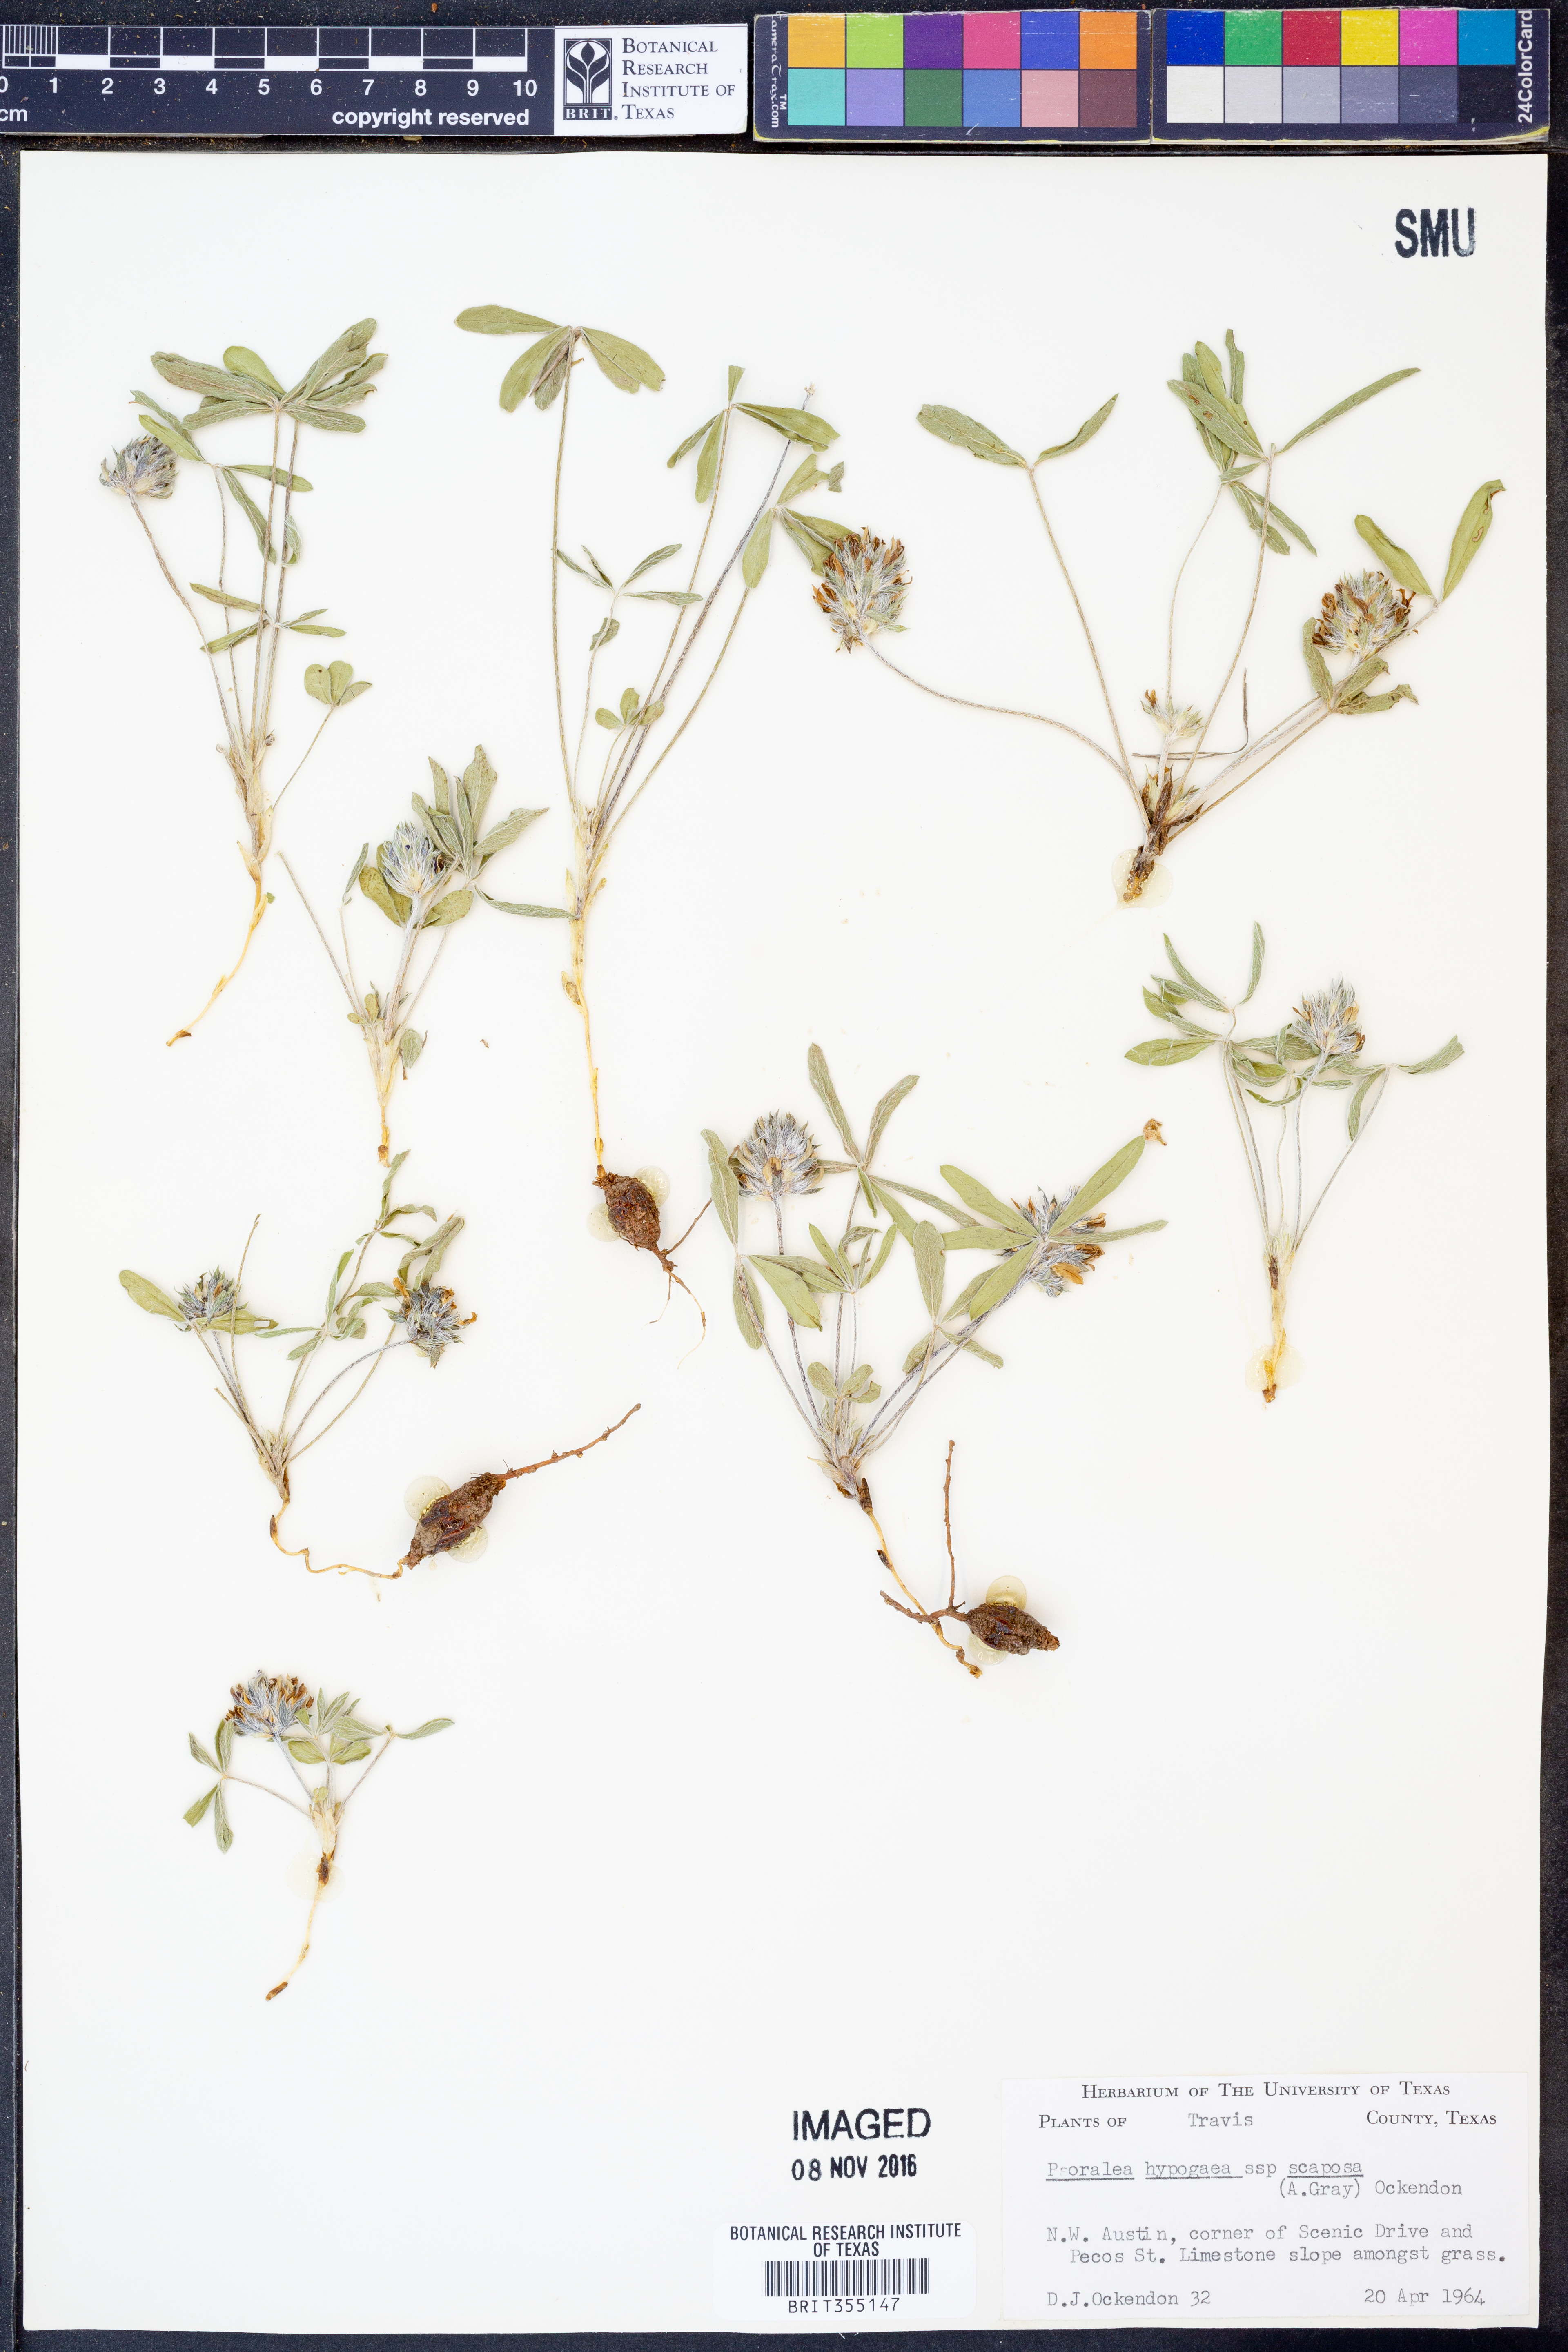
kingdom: Plantae
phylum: Tracheophyta
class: Magnoliopsida
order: Fabales
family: Fabaceae
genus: Pediomelum
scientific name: Pediomelum hypogaeum
